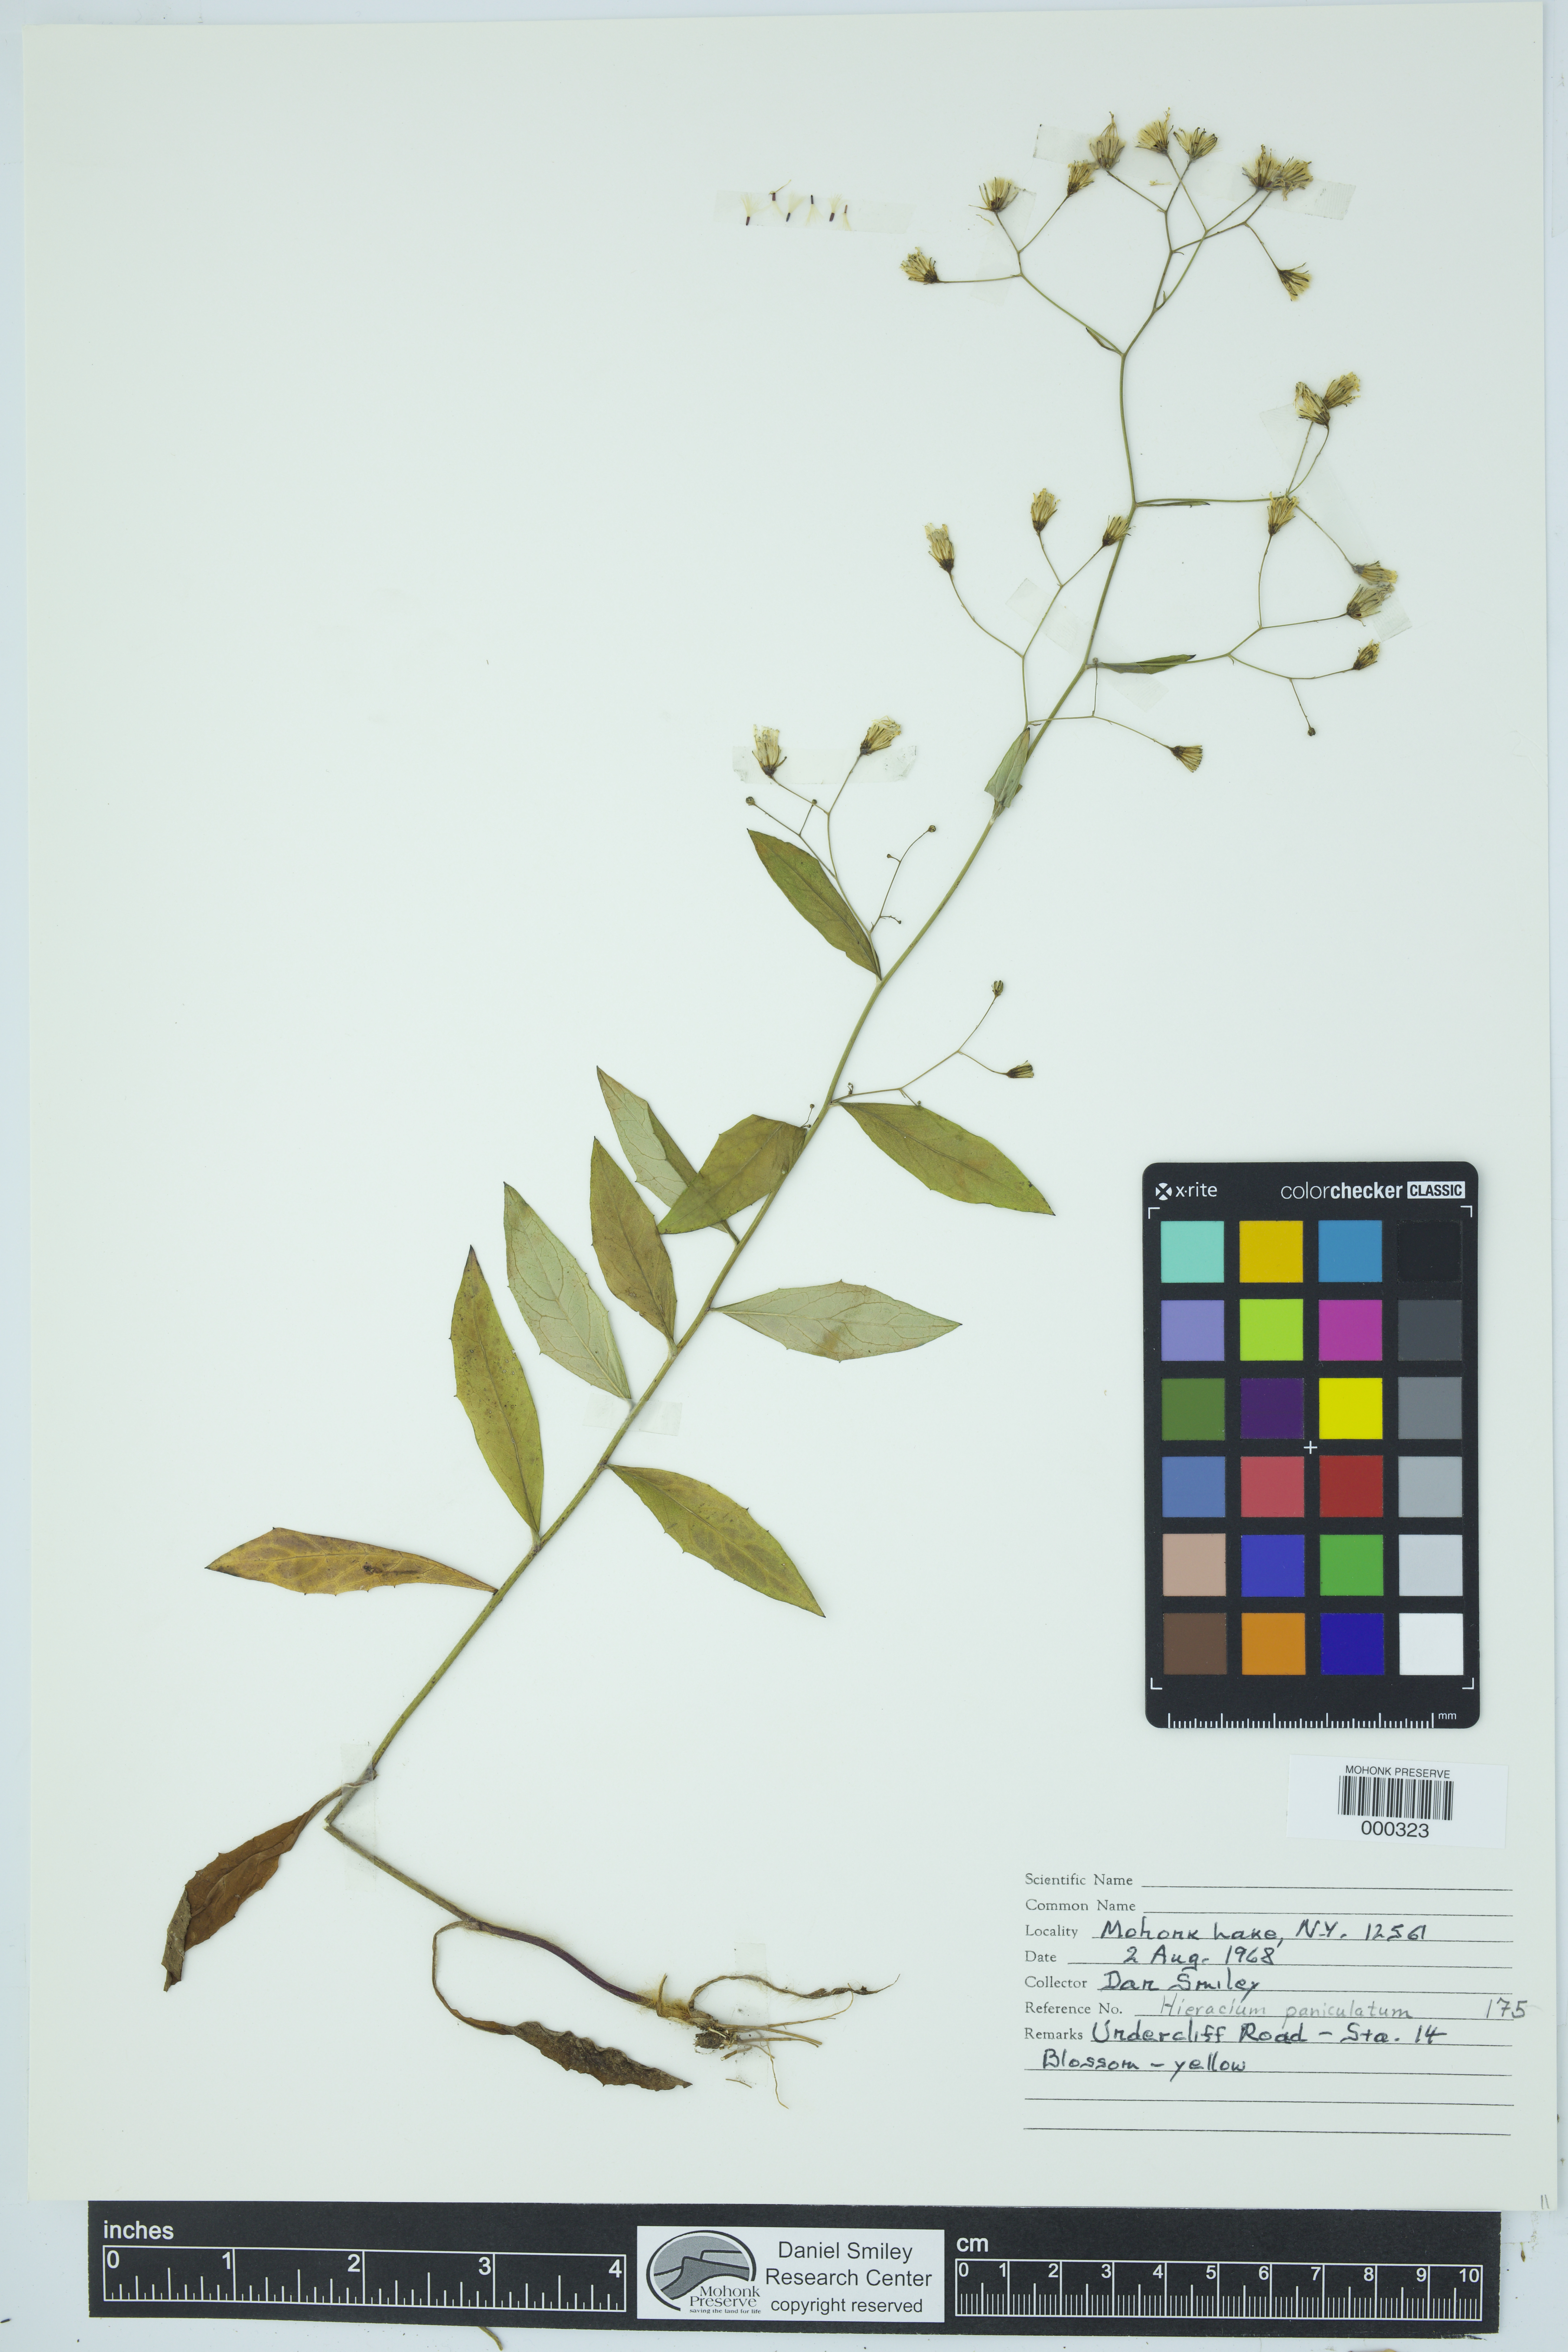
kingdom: Plantae
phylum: Tracheophyta
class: Magnoliopsida
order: Asterales
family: Asteraceae
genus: Hieracium
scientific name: Hieracium paniculatum
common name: Allegheny hawkweed
